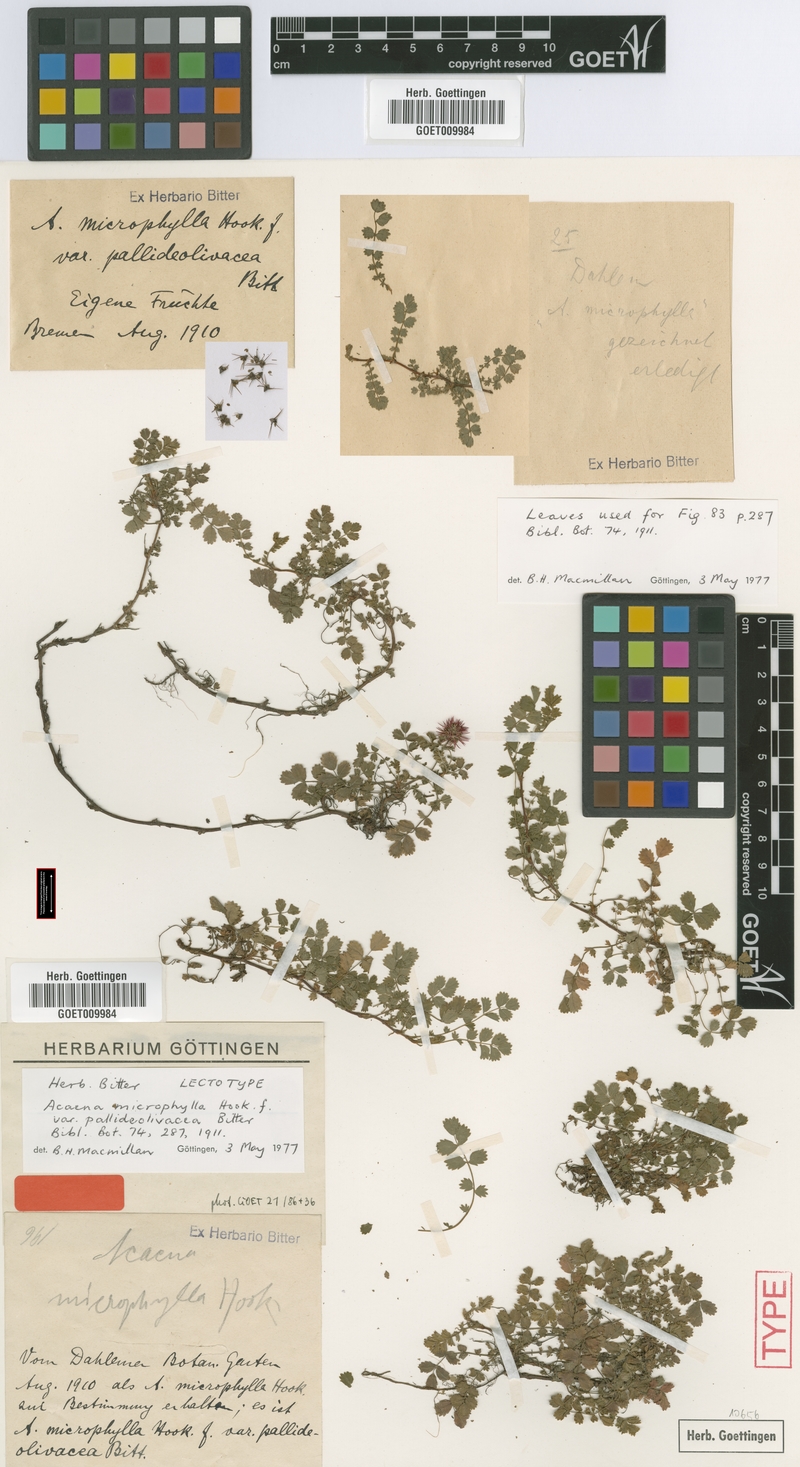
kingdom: Plantae
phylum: Tracheophyta
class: Magnoliopsida
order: Rosales
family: Rosaceae
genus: Acaena
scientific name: Acaena
